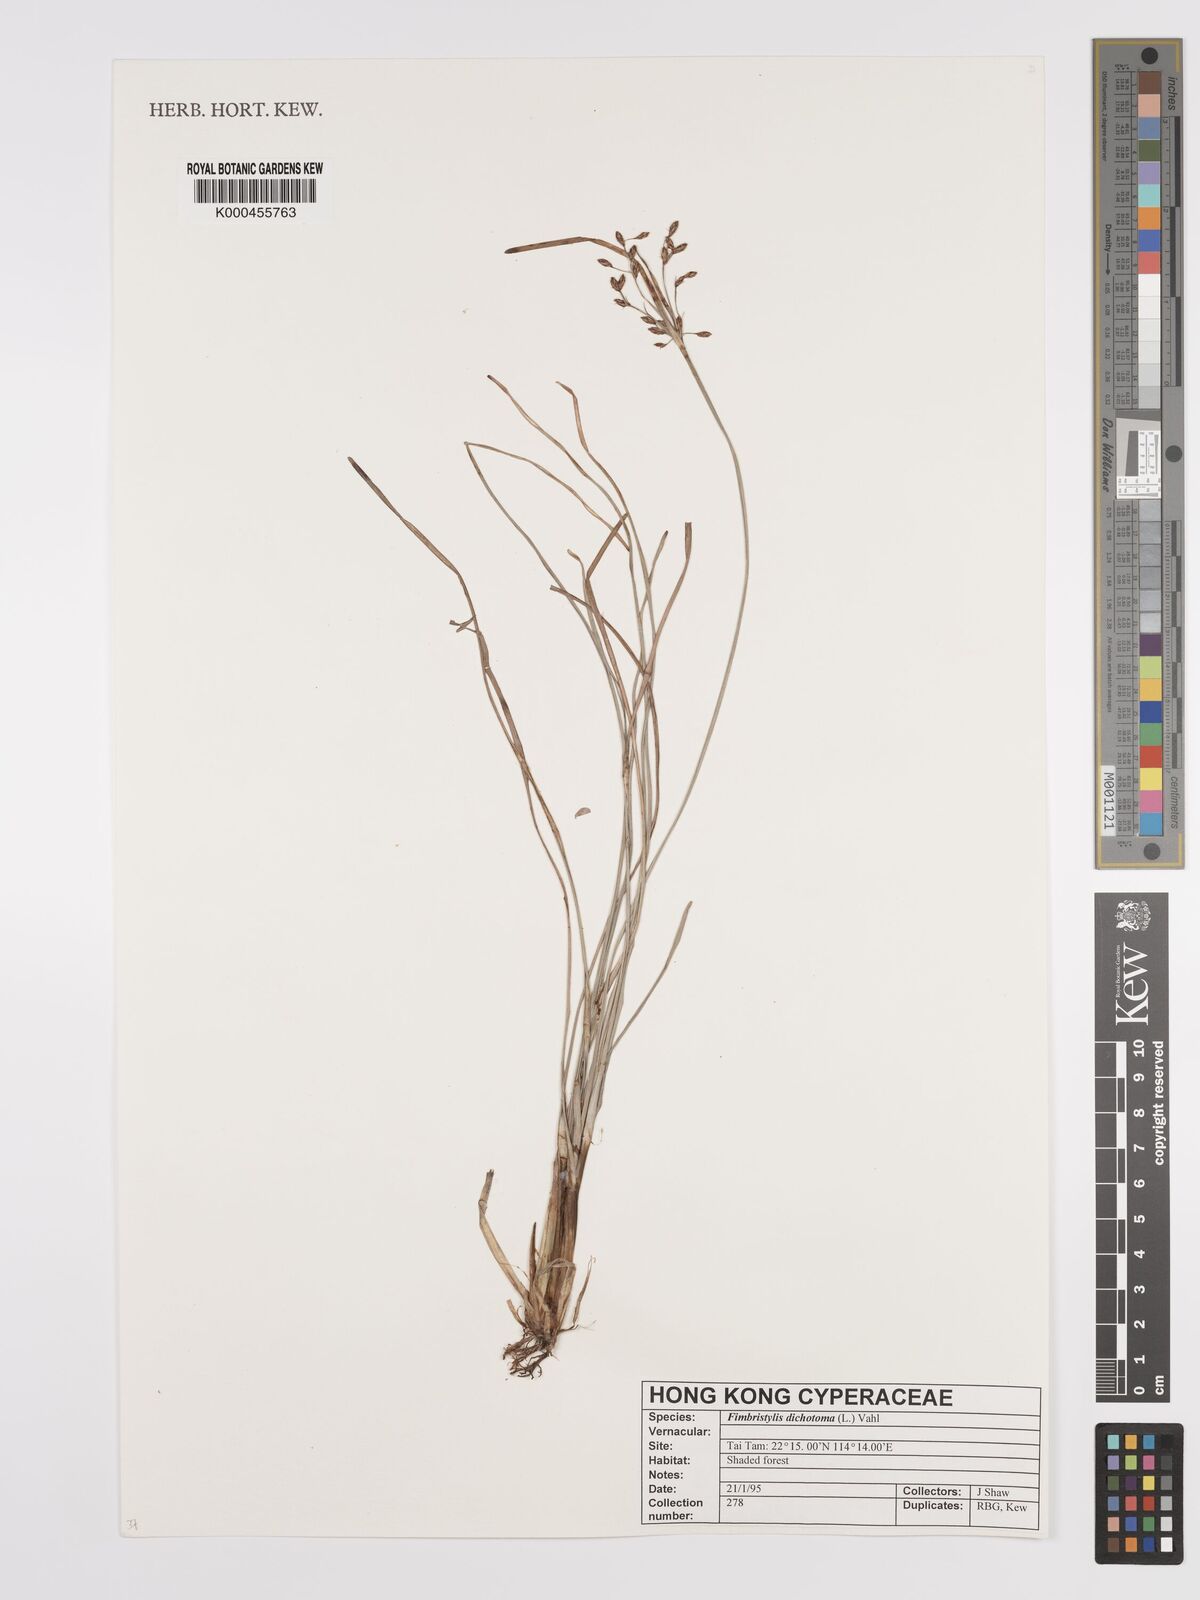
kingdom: Plantae
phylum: Tracheophyta
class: Liliopsida
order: Poales
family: Cyperaceae
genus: Fimbristylis
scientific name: Fimbristylis dichotoma
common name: Forked fimbry
